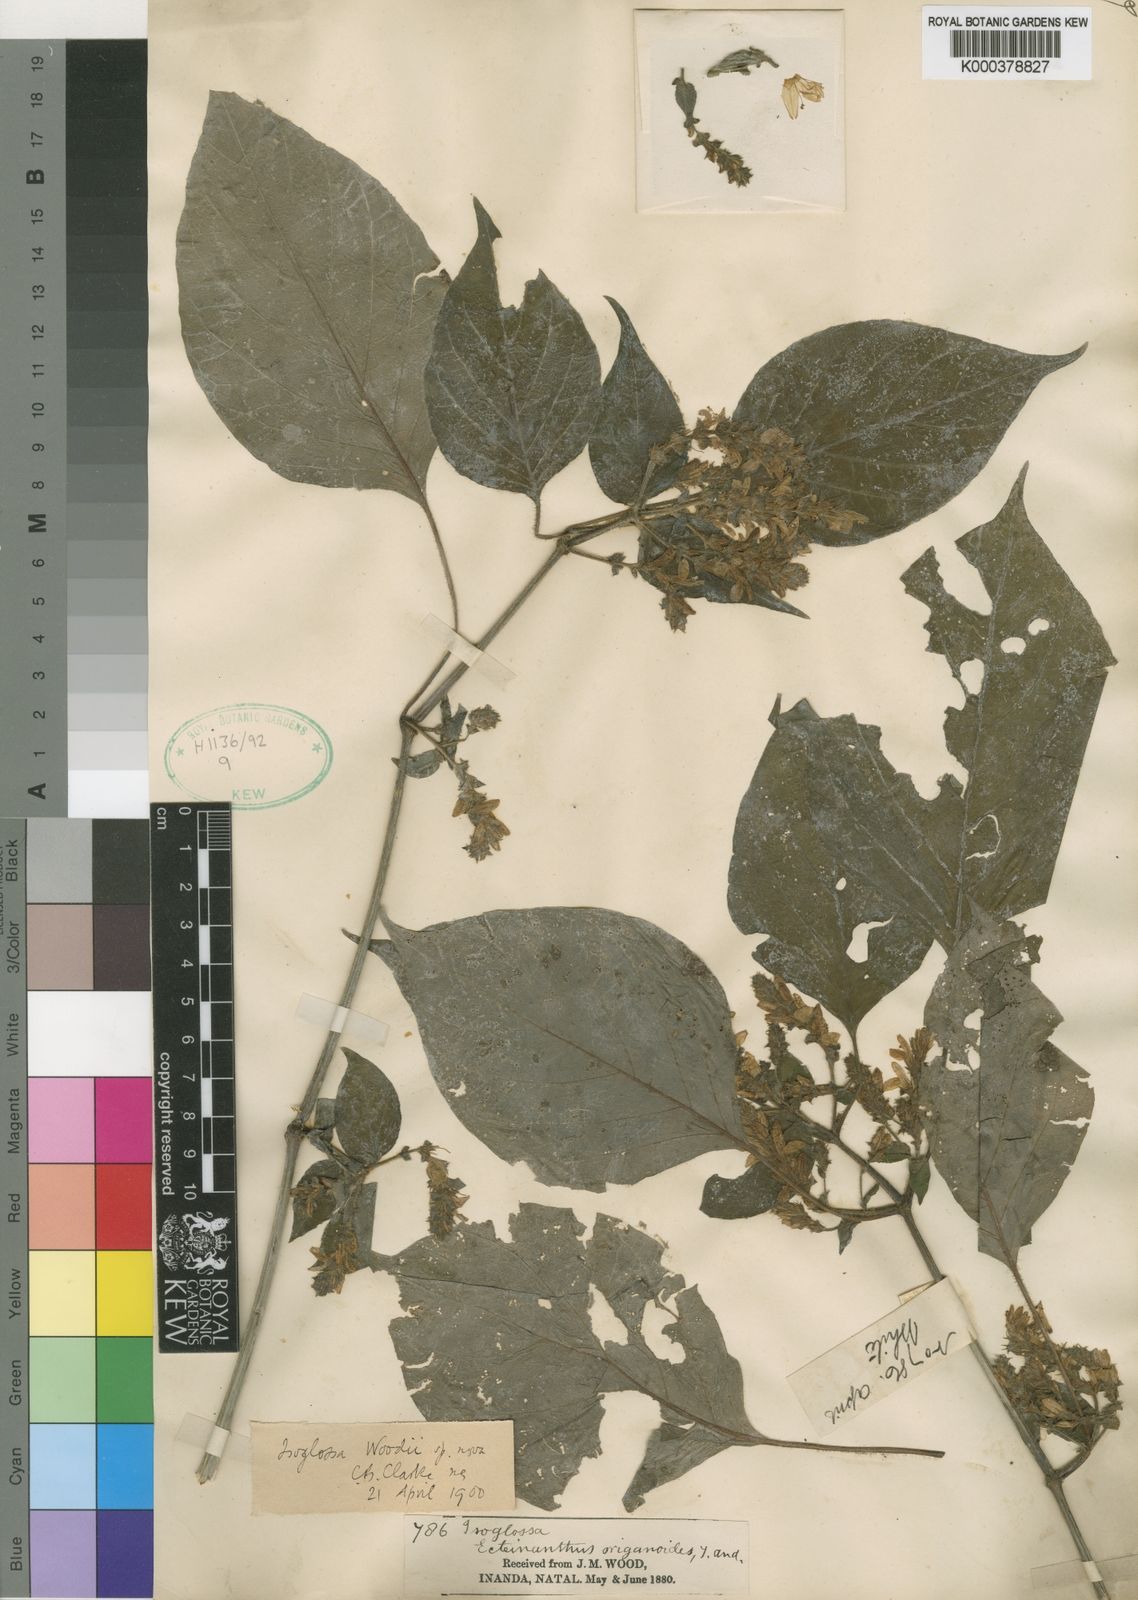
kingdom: Plantae
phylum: Tracheophyta
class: Magnoliopsida
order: Lamiales
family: Acanthaceae
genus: Isoglossa
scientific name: Isoglossa woodii
